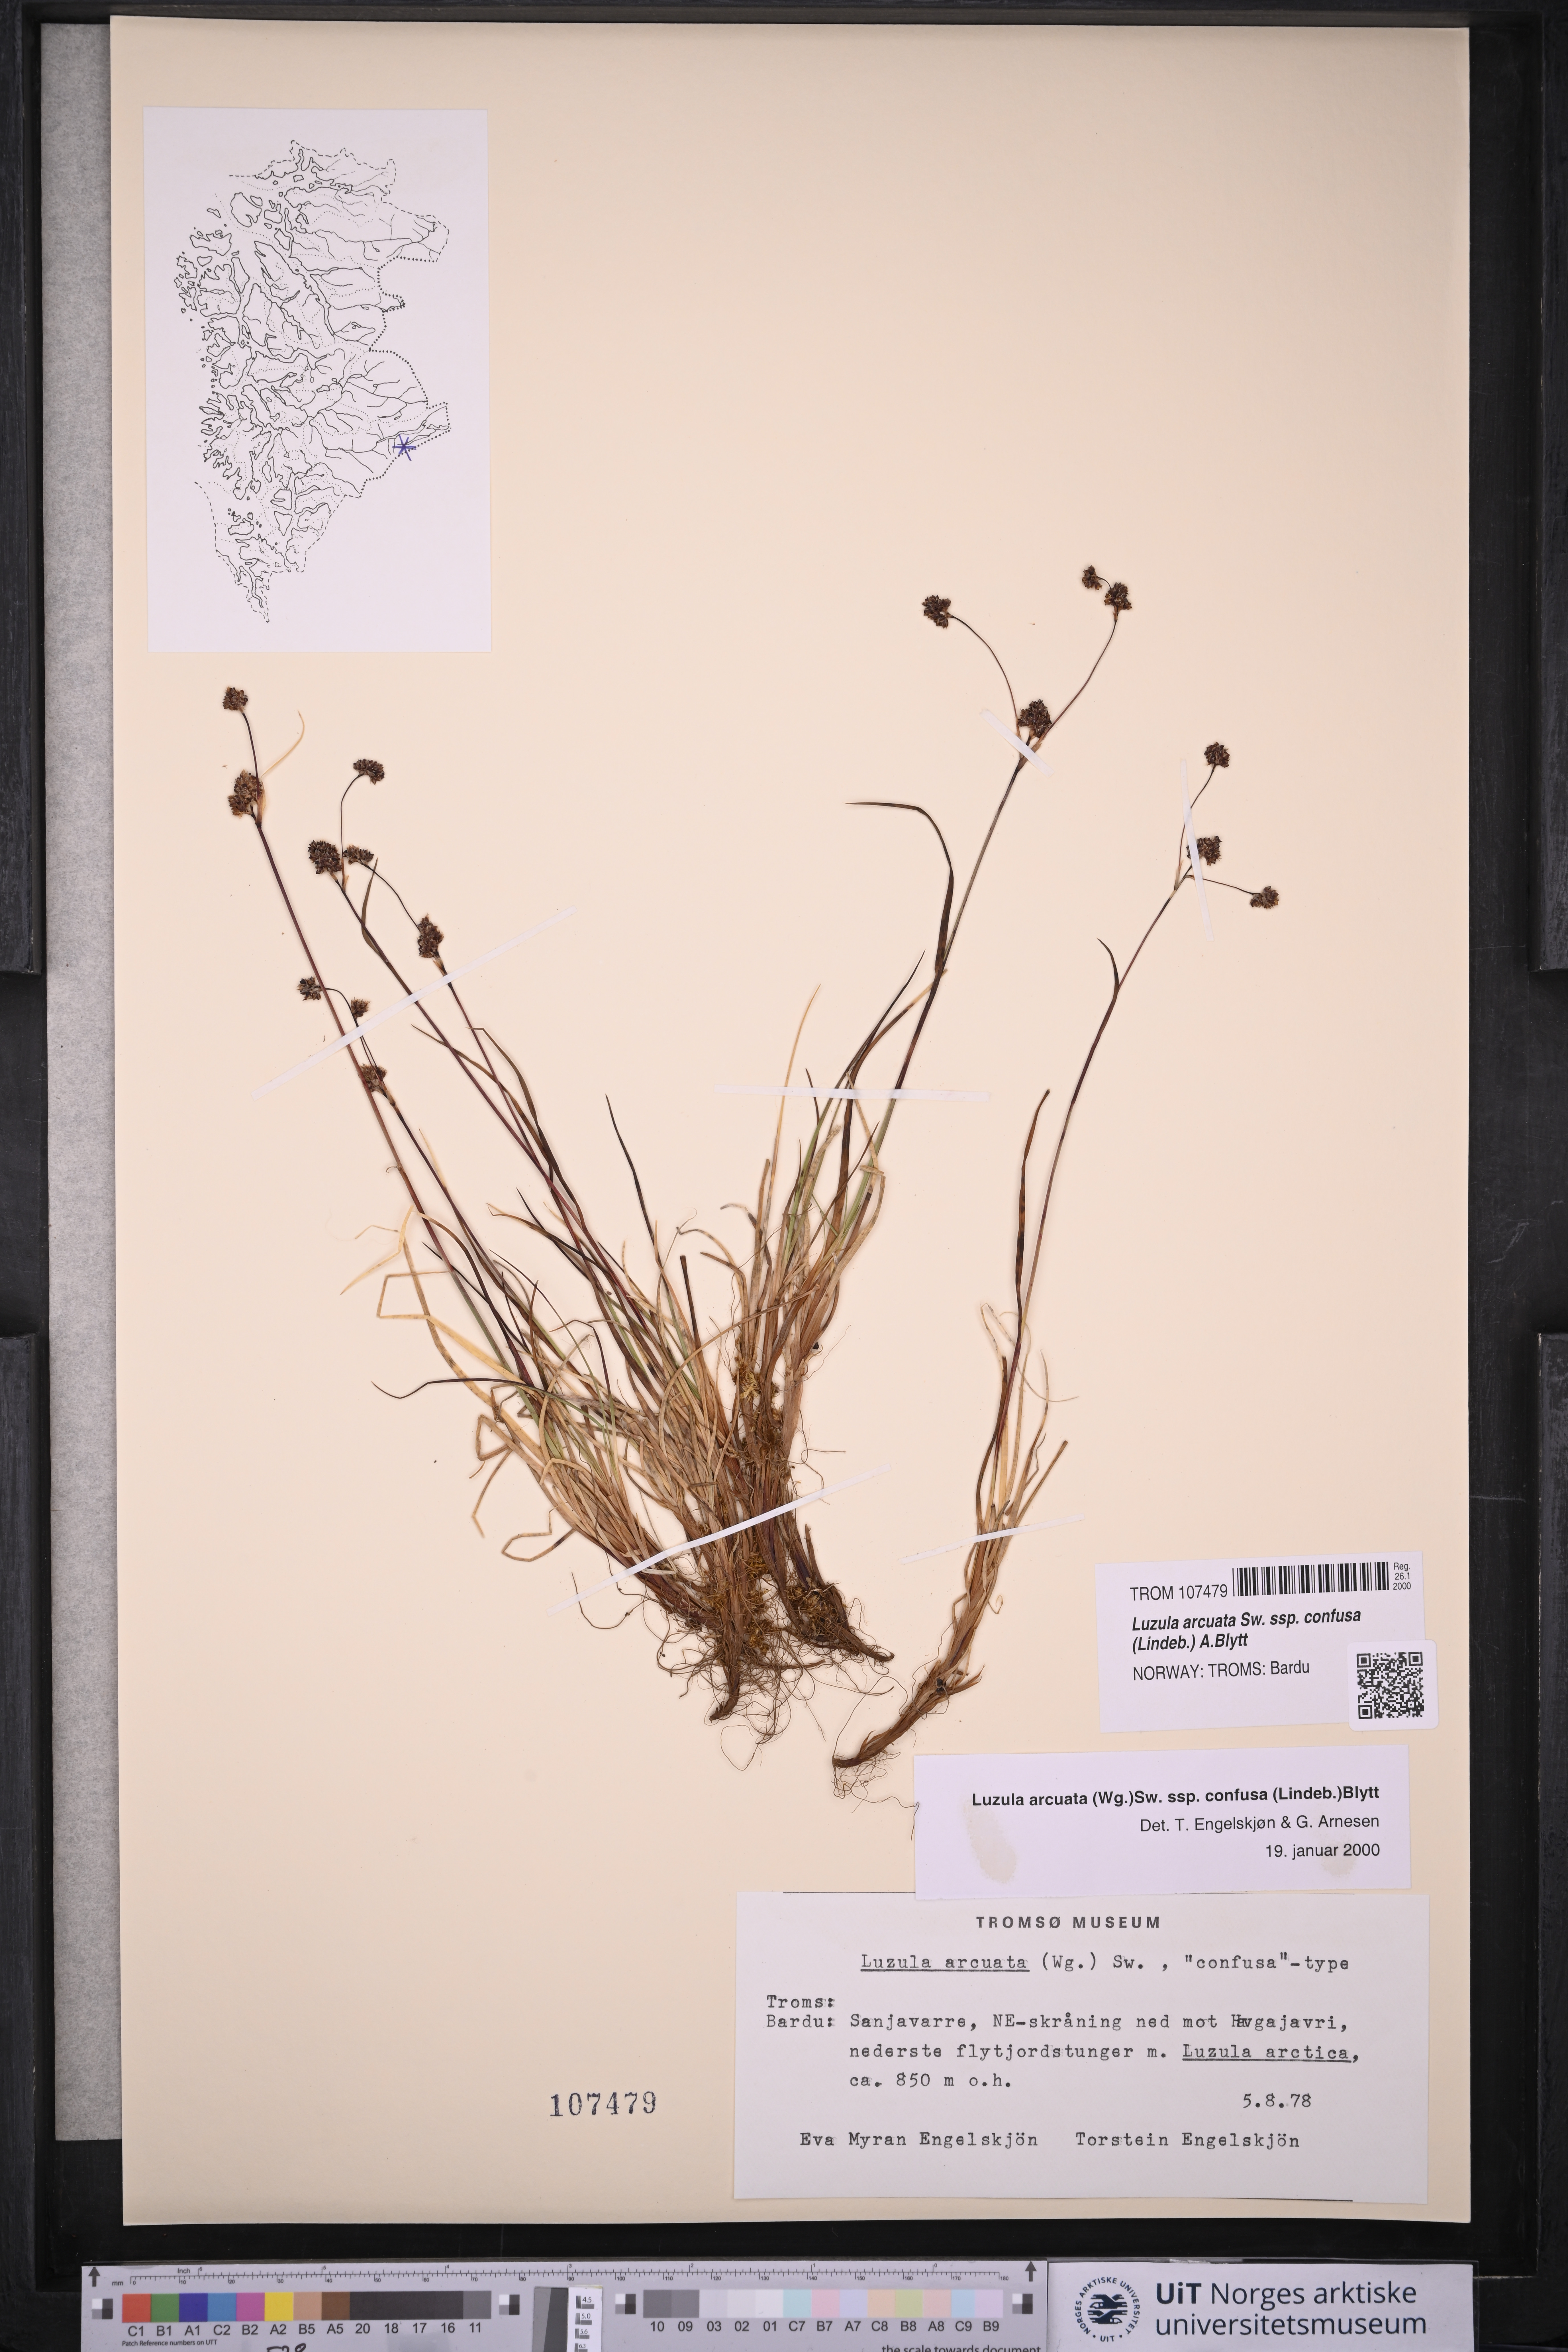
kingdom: Plantae
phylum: Tracheophyta
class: Liliopsida
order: Poales
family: Juncaceae
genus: Luzula
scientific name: Luzula confusa
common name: Northern wood rush
